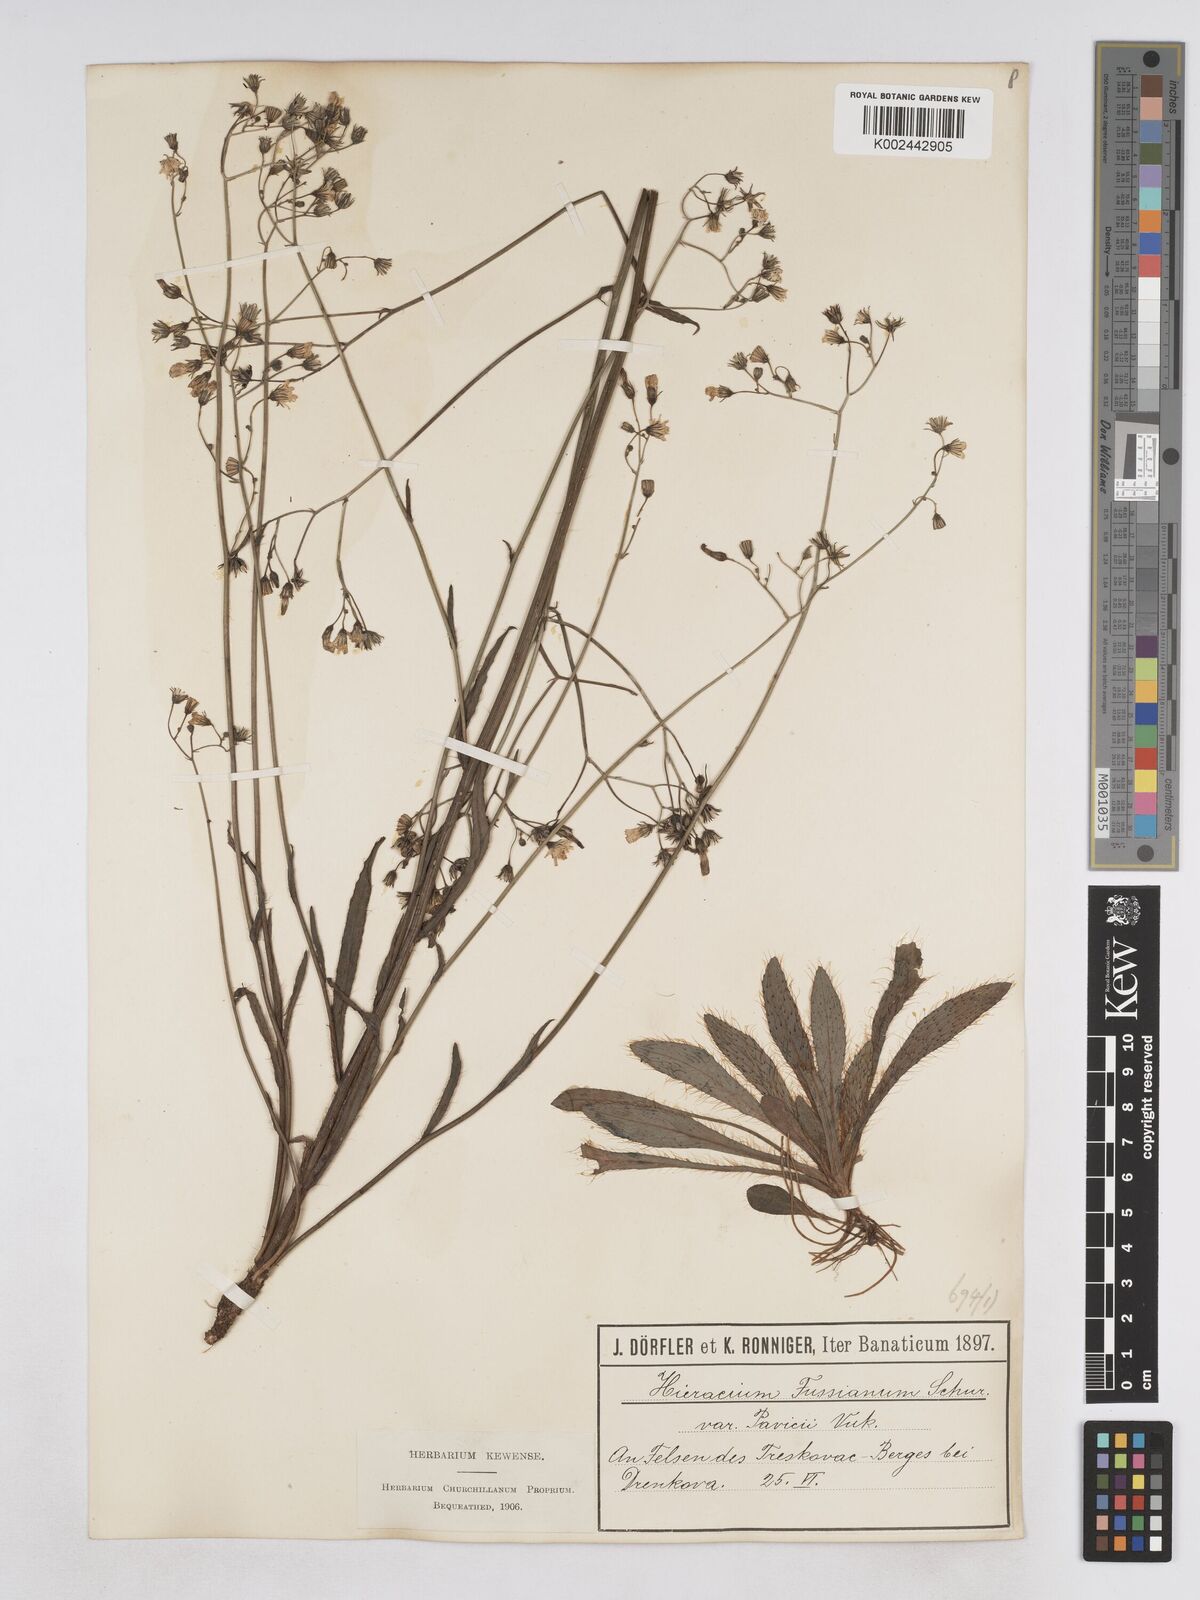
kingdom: Plantae
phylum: Tracheophyta
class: Magnoliopsida
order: Asterales
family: Asteraceae
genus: Pilosella
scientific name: Pilosella pavichii
